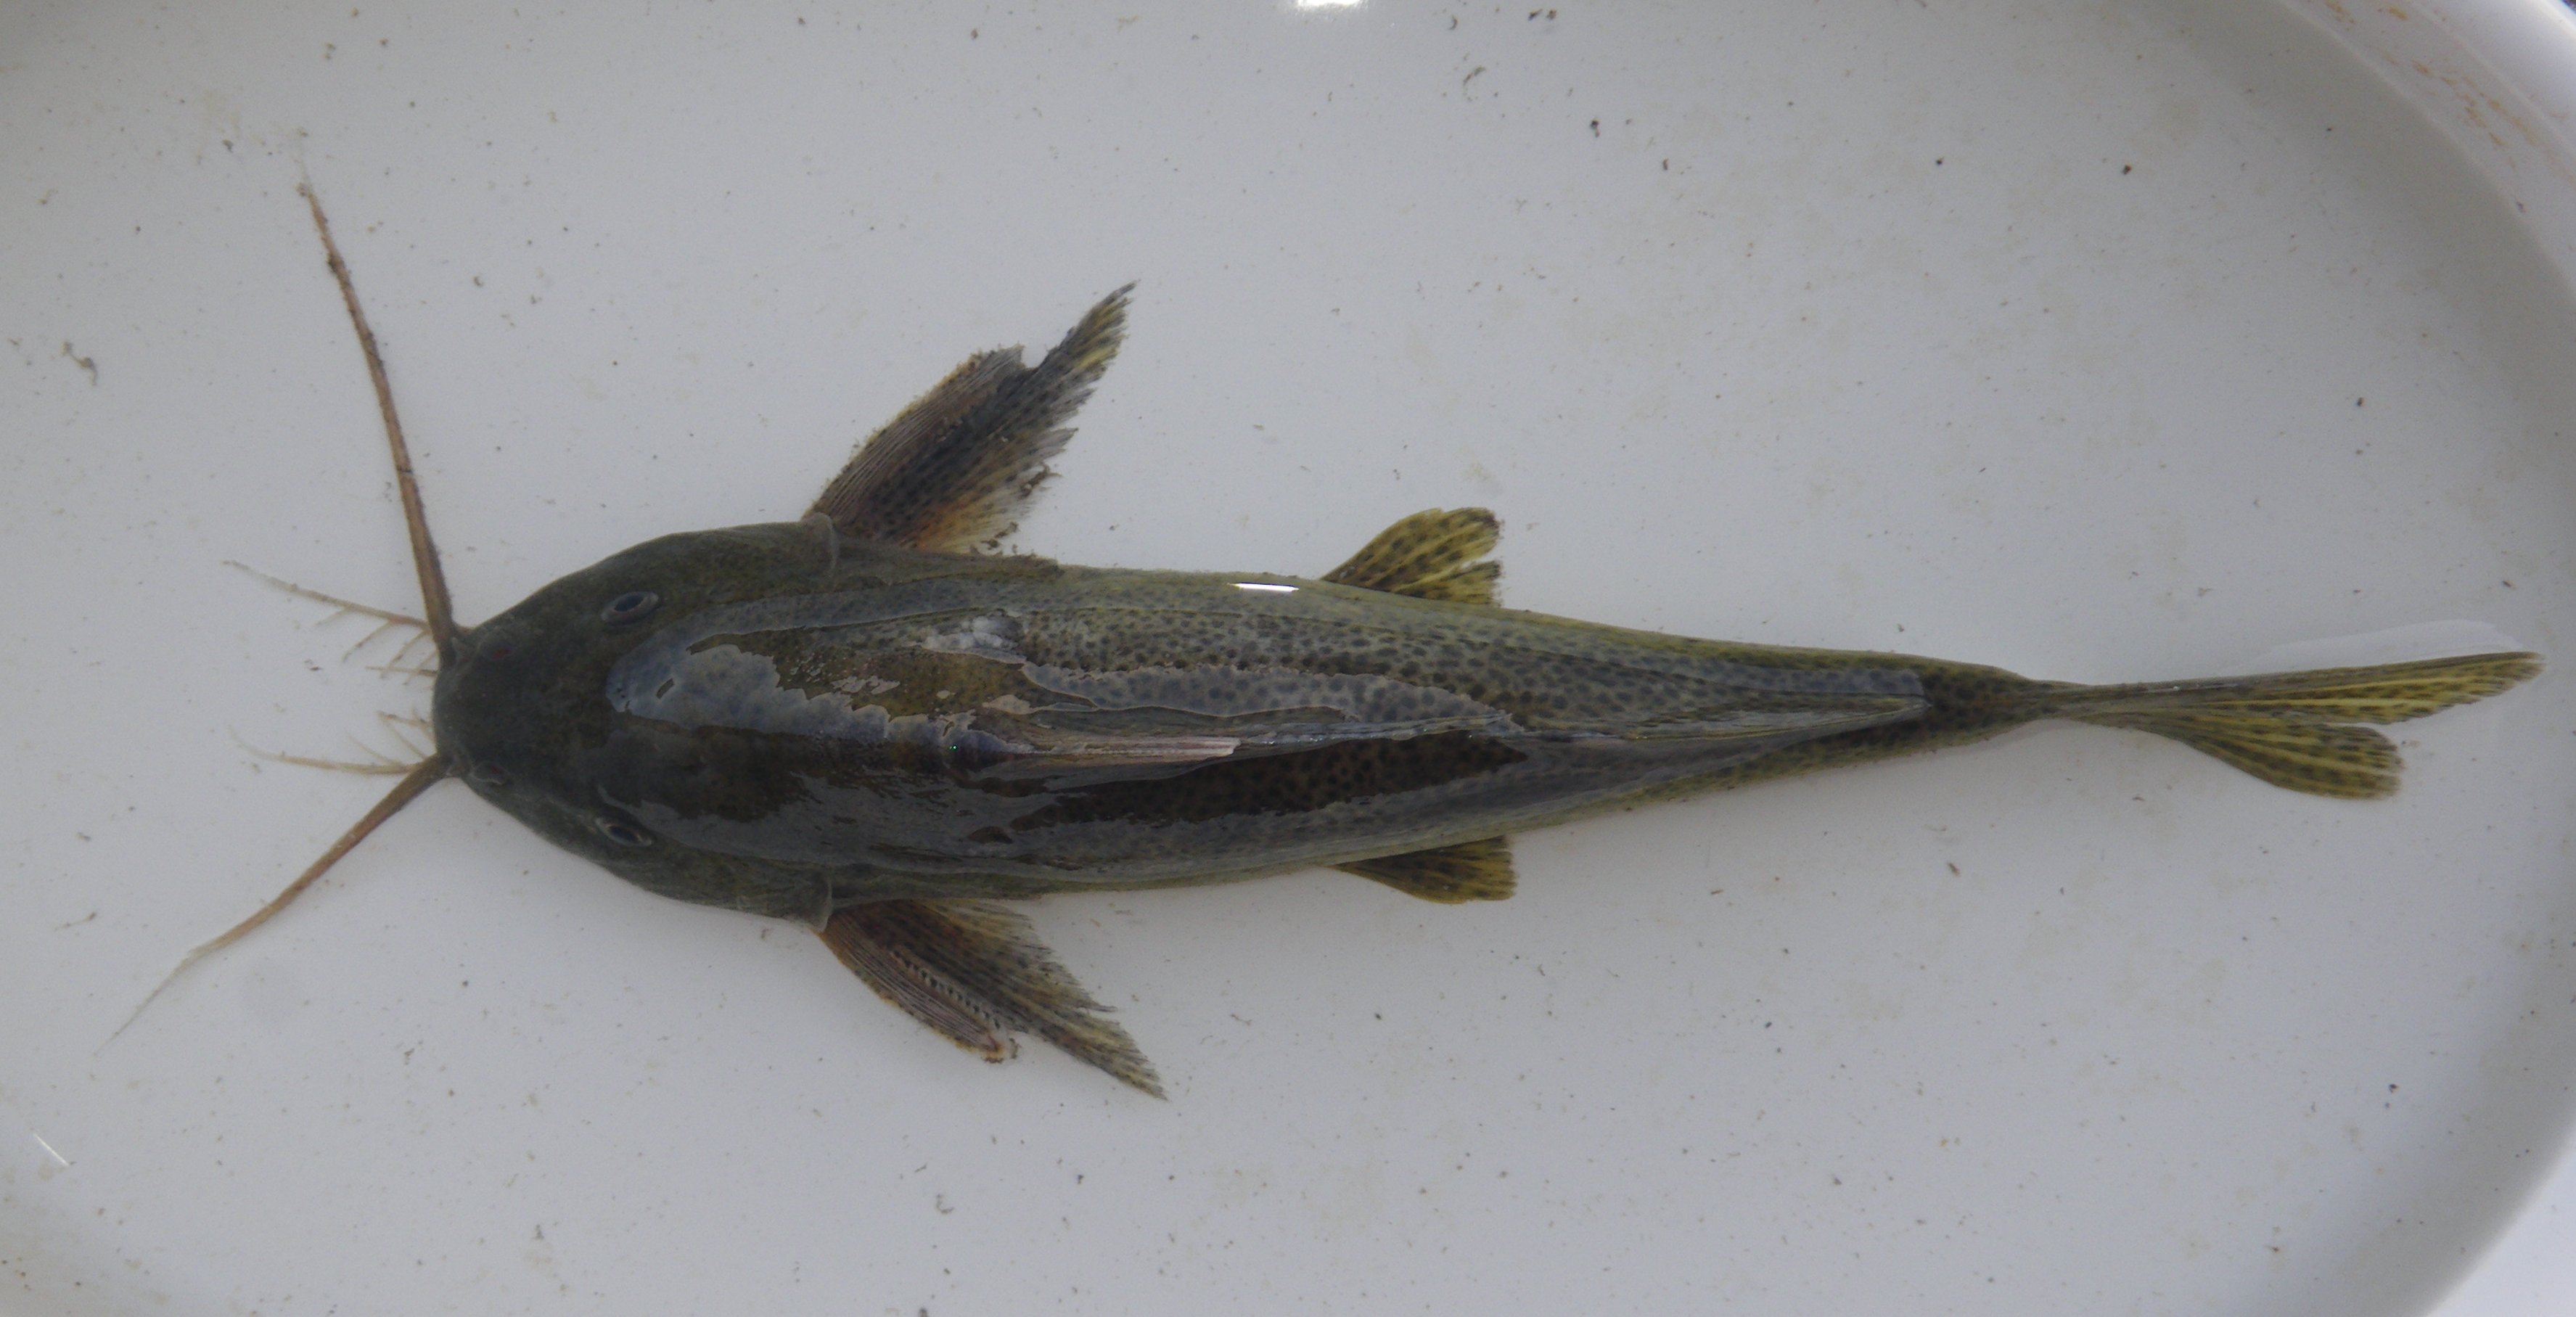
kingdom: Animalia
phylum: Chordata
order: Siluriformes
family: Mochokidae
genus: Synodontis
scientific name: Synodontis nigromaculatus
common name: Blackspotted squeaker
